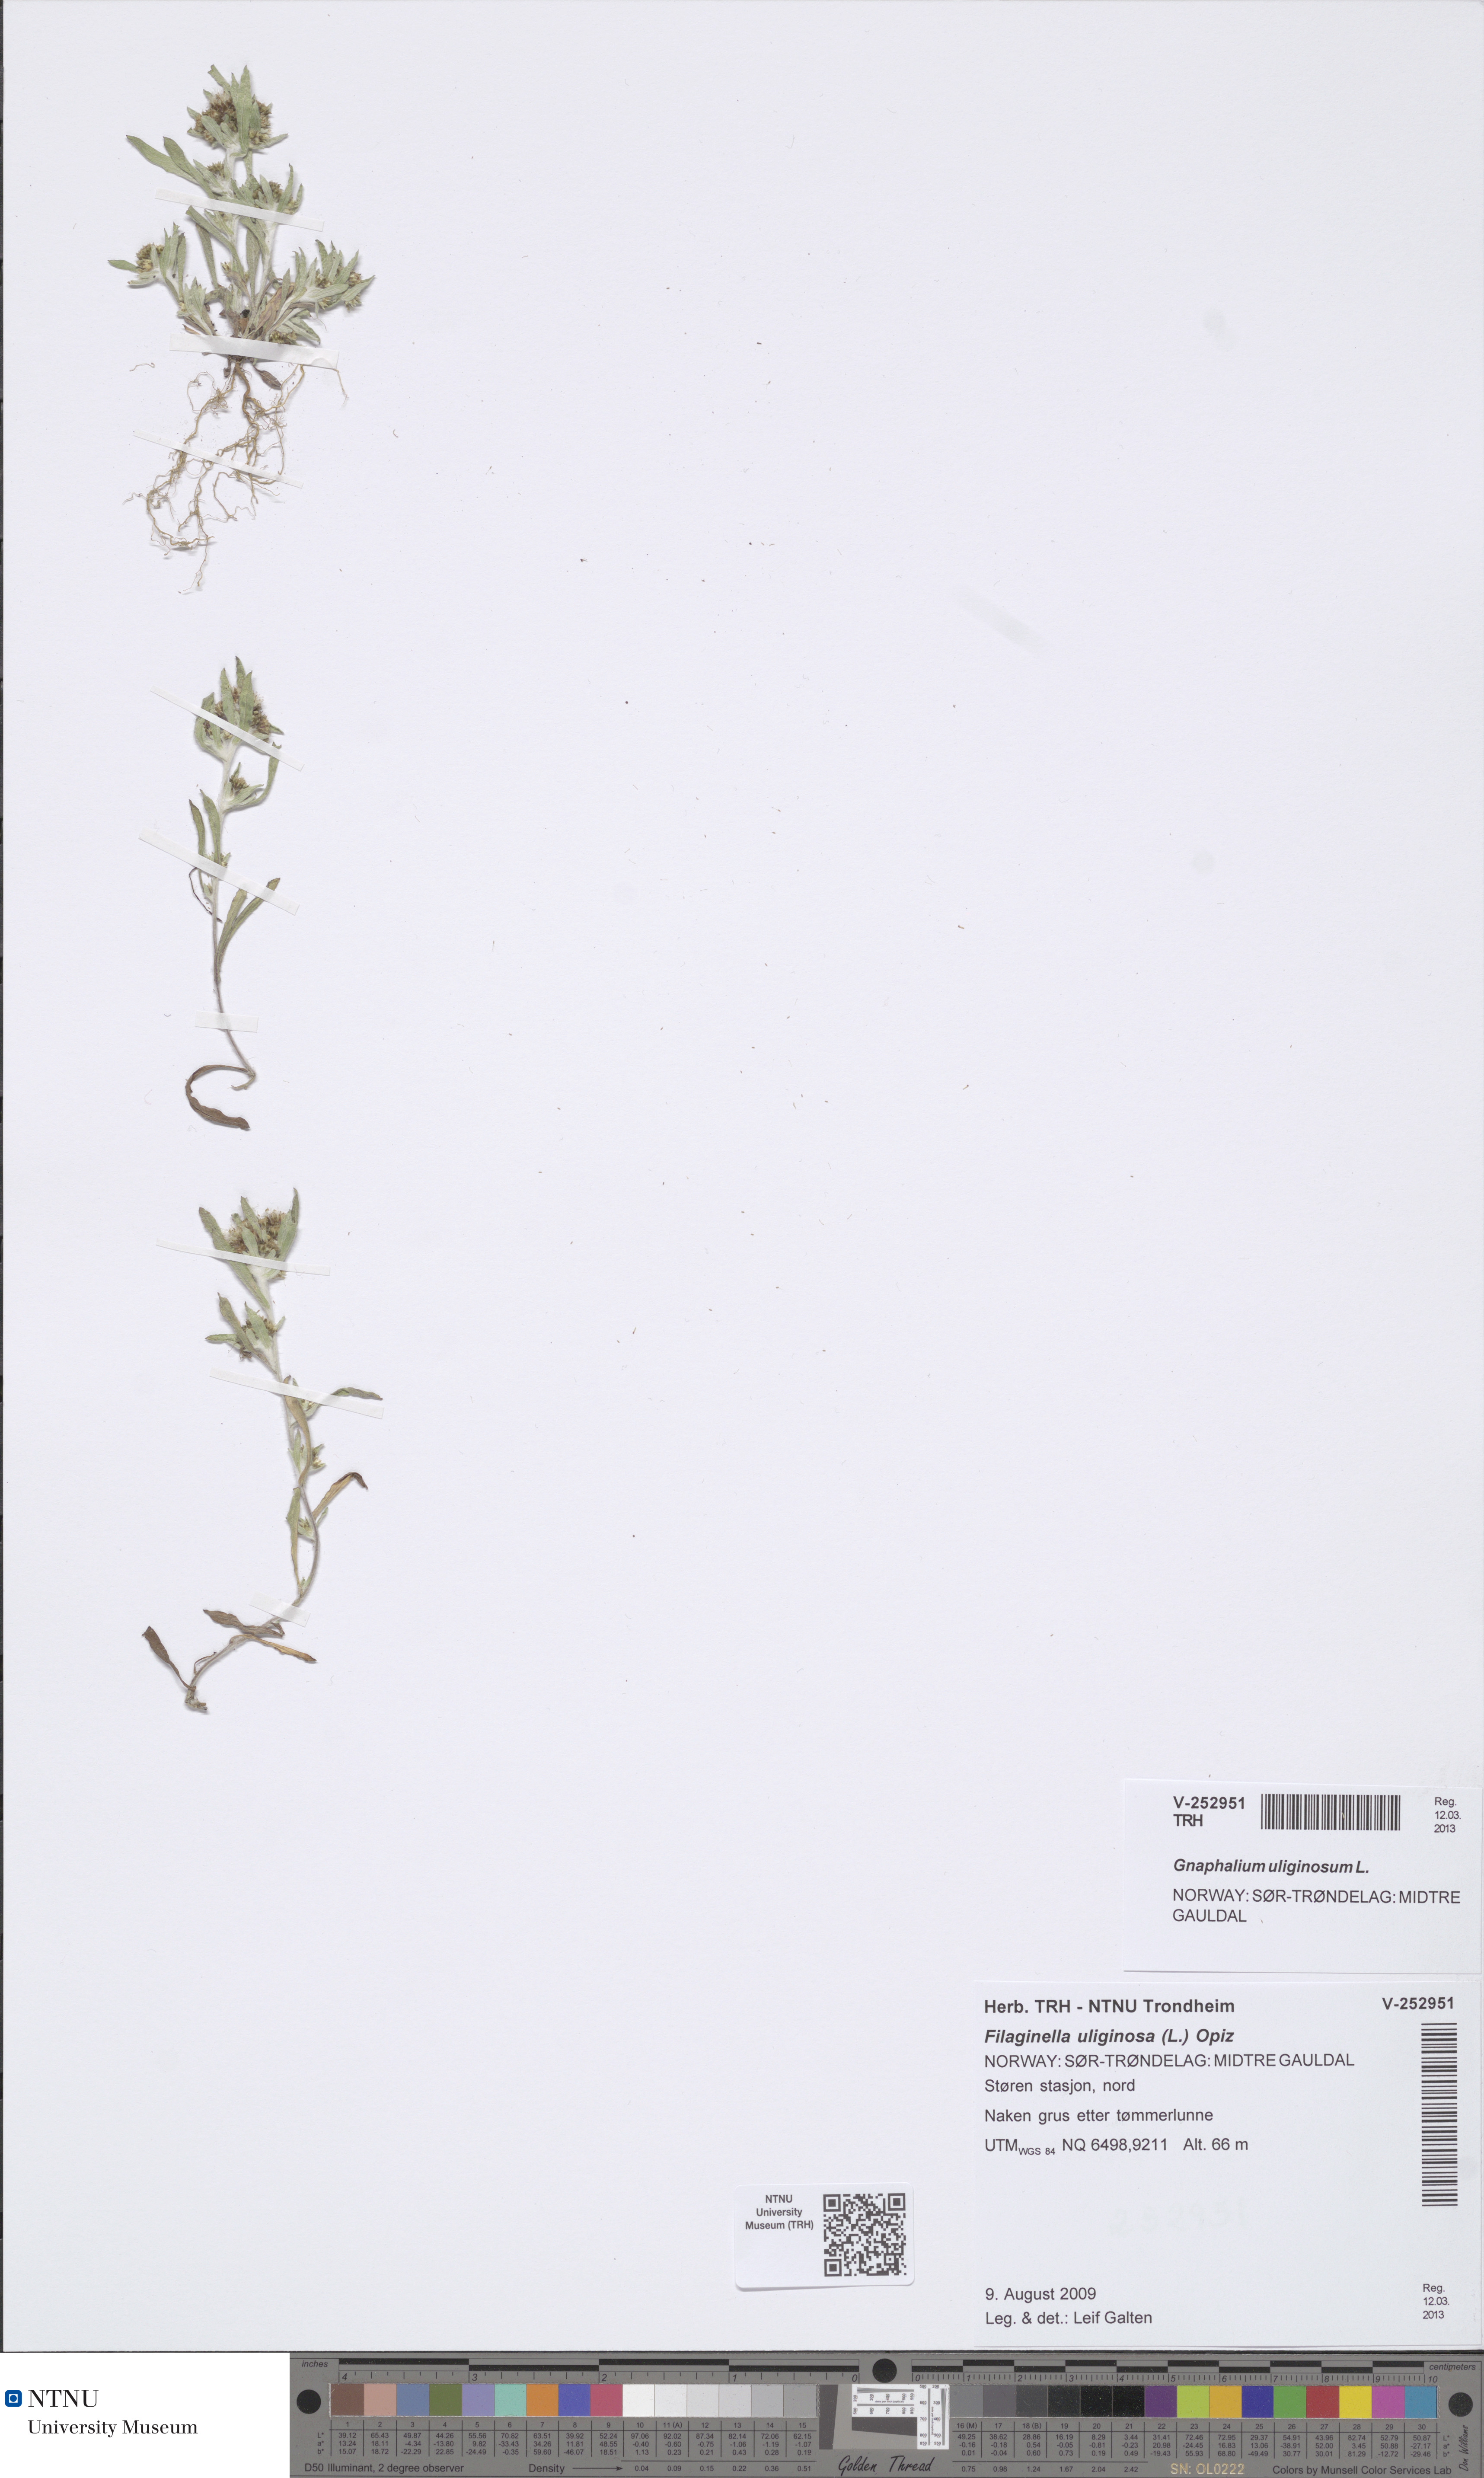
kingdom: Plantae
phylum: Tracheophyta
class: Magnoliopsida
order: Asterales
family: Asteraceae
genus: Gnaphalium
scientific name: Gnaphalium uliginosum
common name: Marsh cudweed
